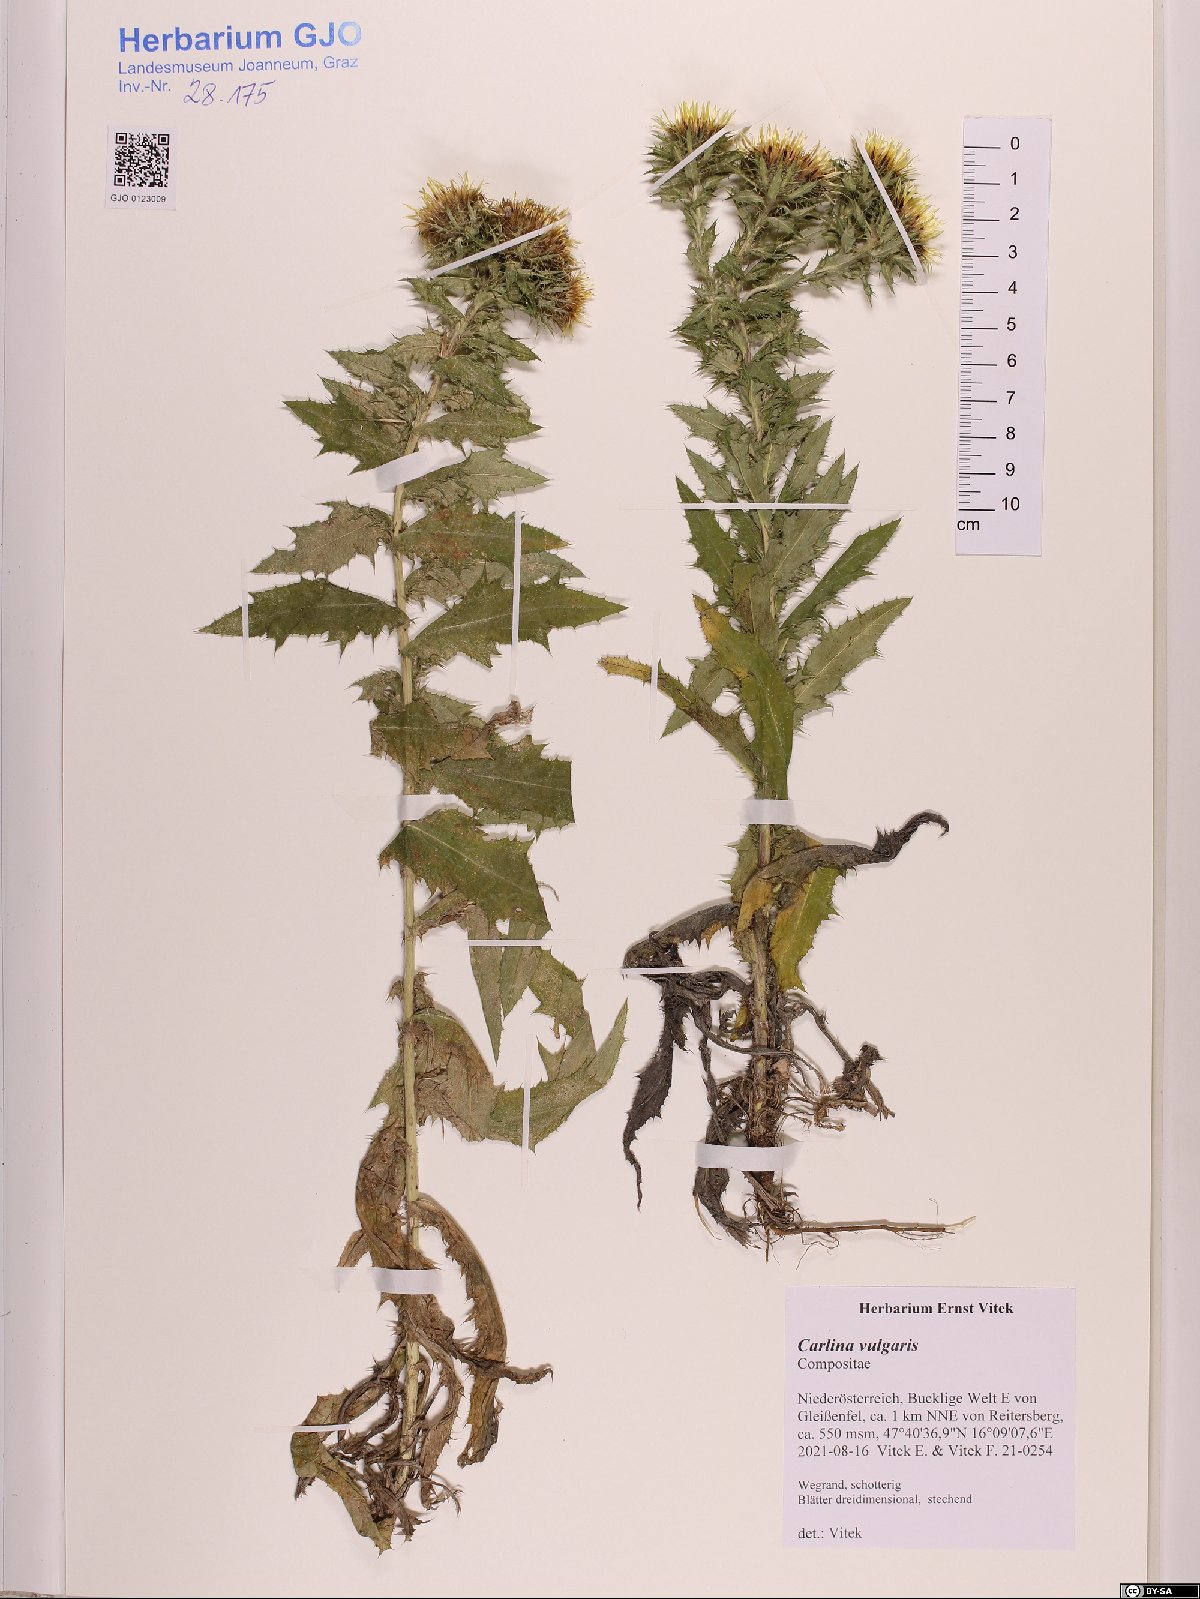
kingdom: Plantae
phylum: Tracheophyta
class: Magnoliopsida
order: Asterales
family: Asteraceae
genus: Carlina
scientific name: Carlina vulgaris
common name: Carline thistle
